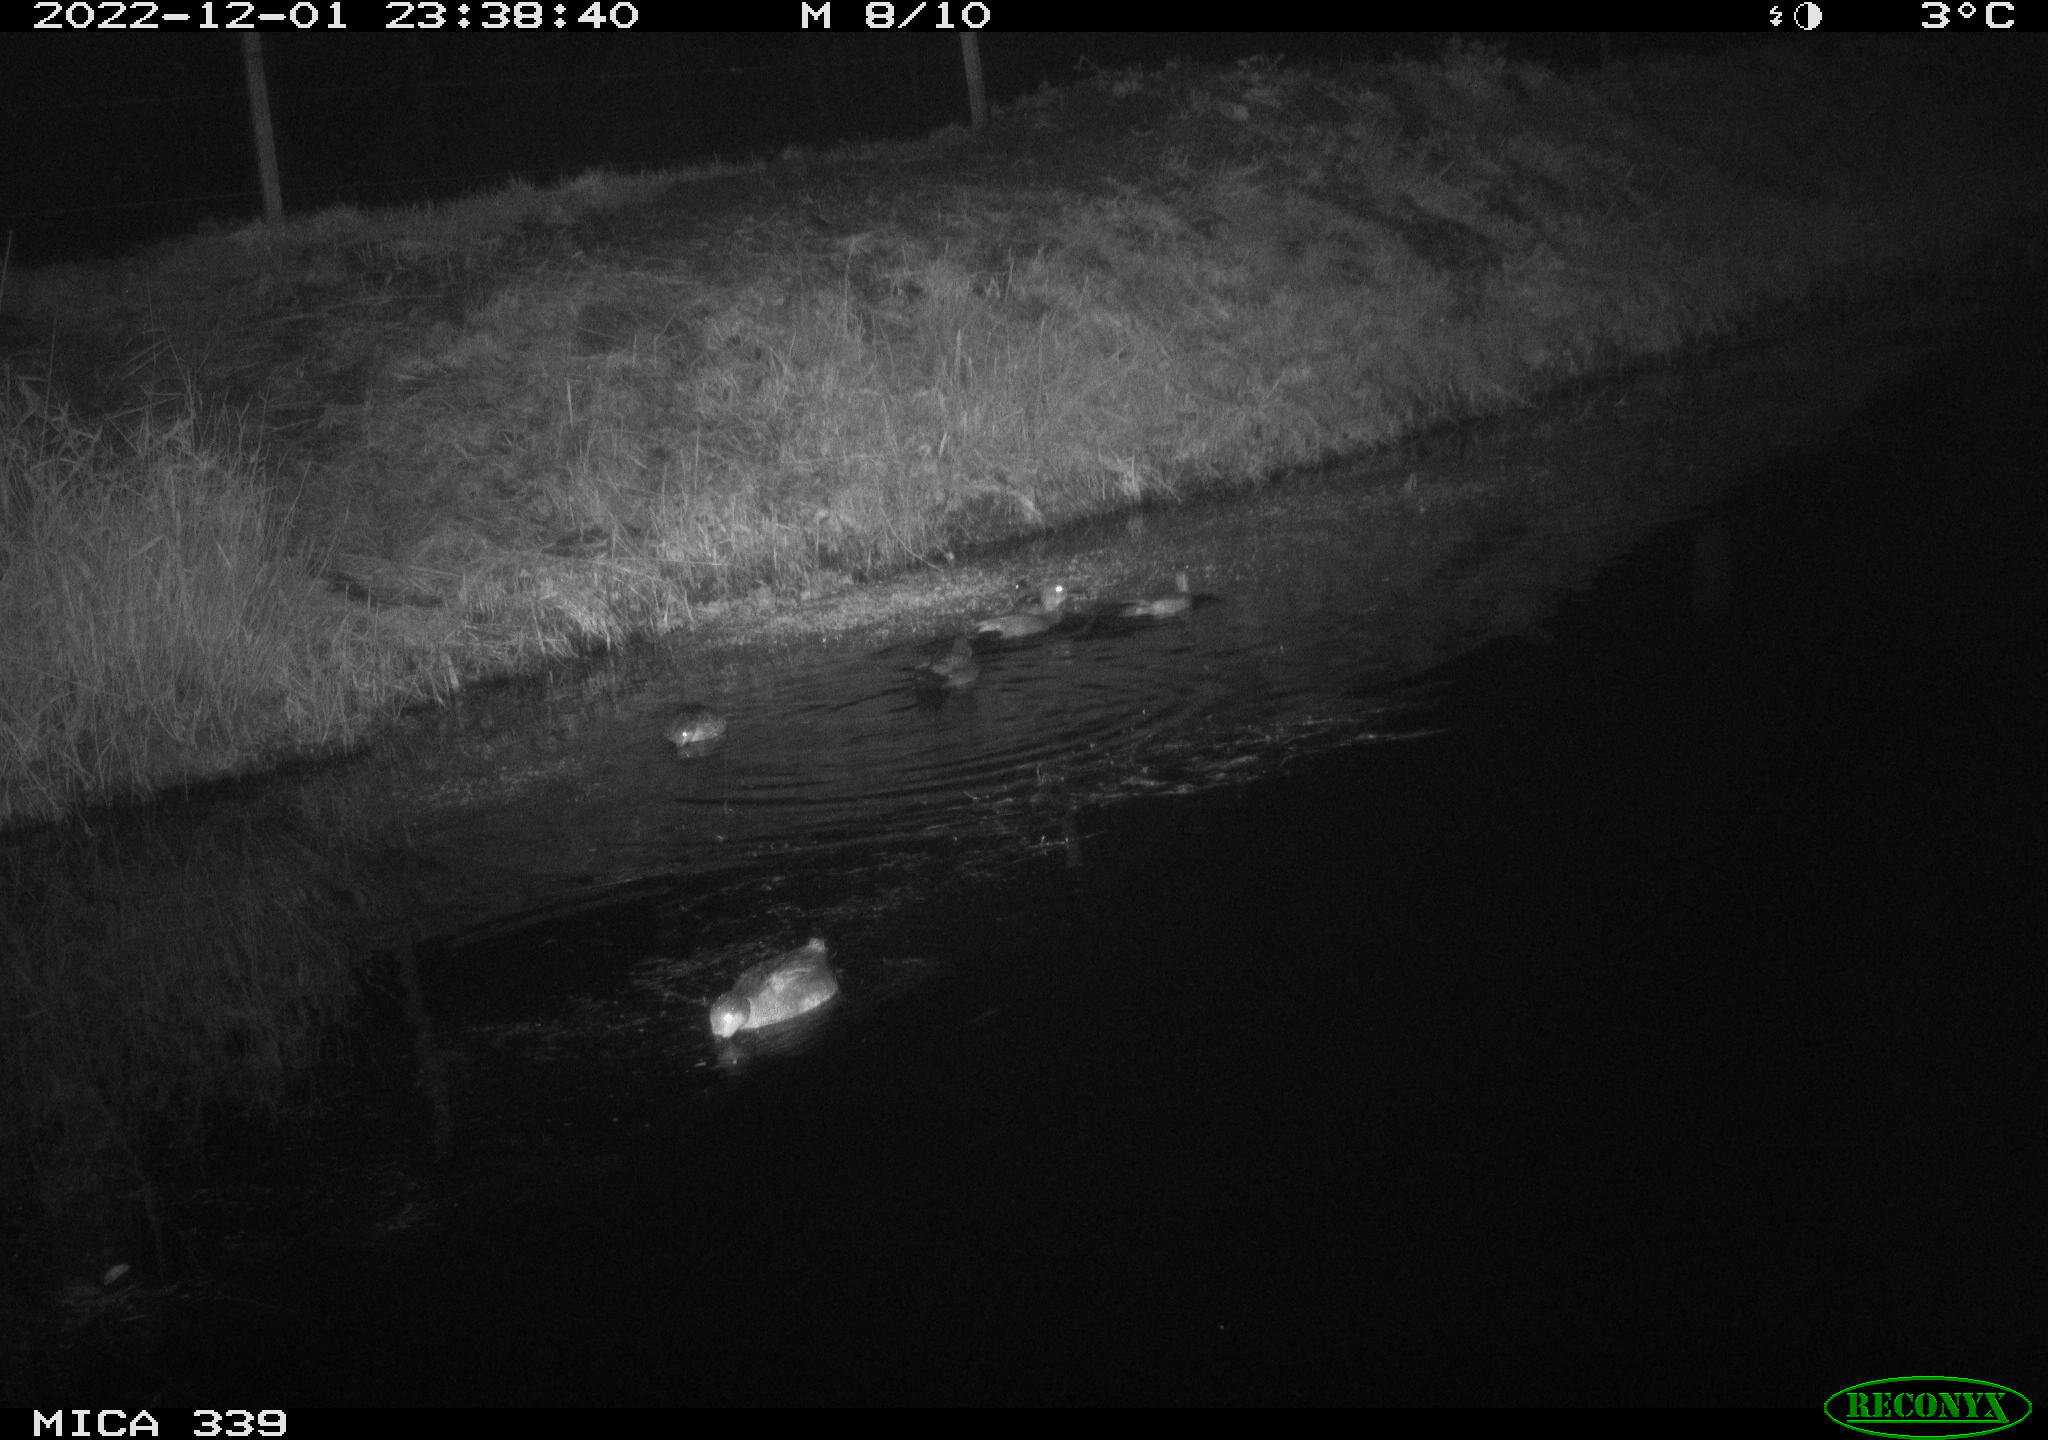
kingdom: Animalia
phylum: Chordata
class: Aves
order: Anseriformes
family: Anatidae
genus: Anas
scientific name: Anas platyrhynchos
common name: Mallard
